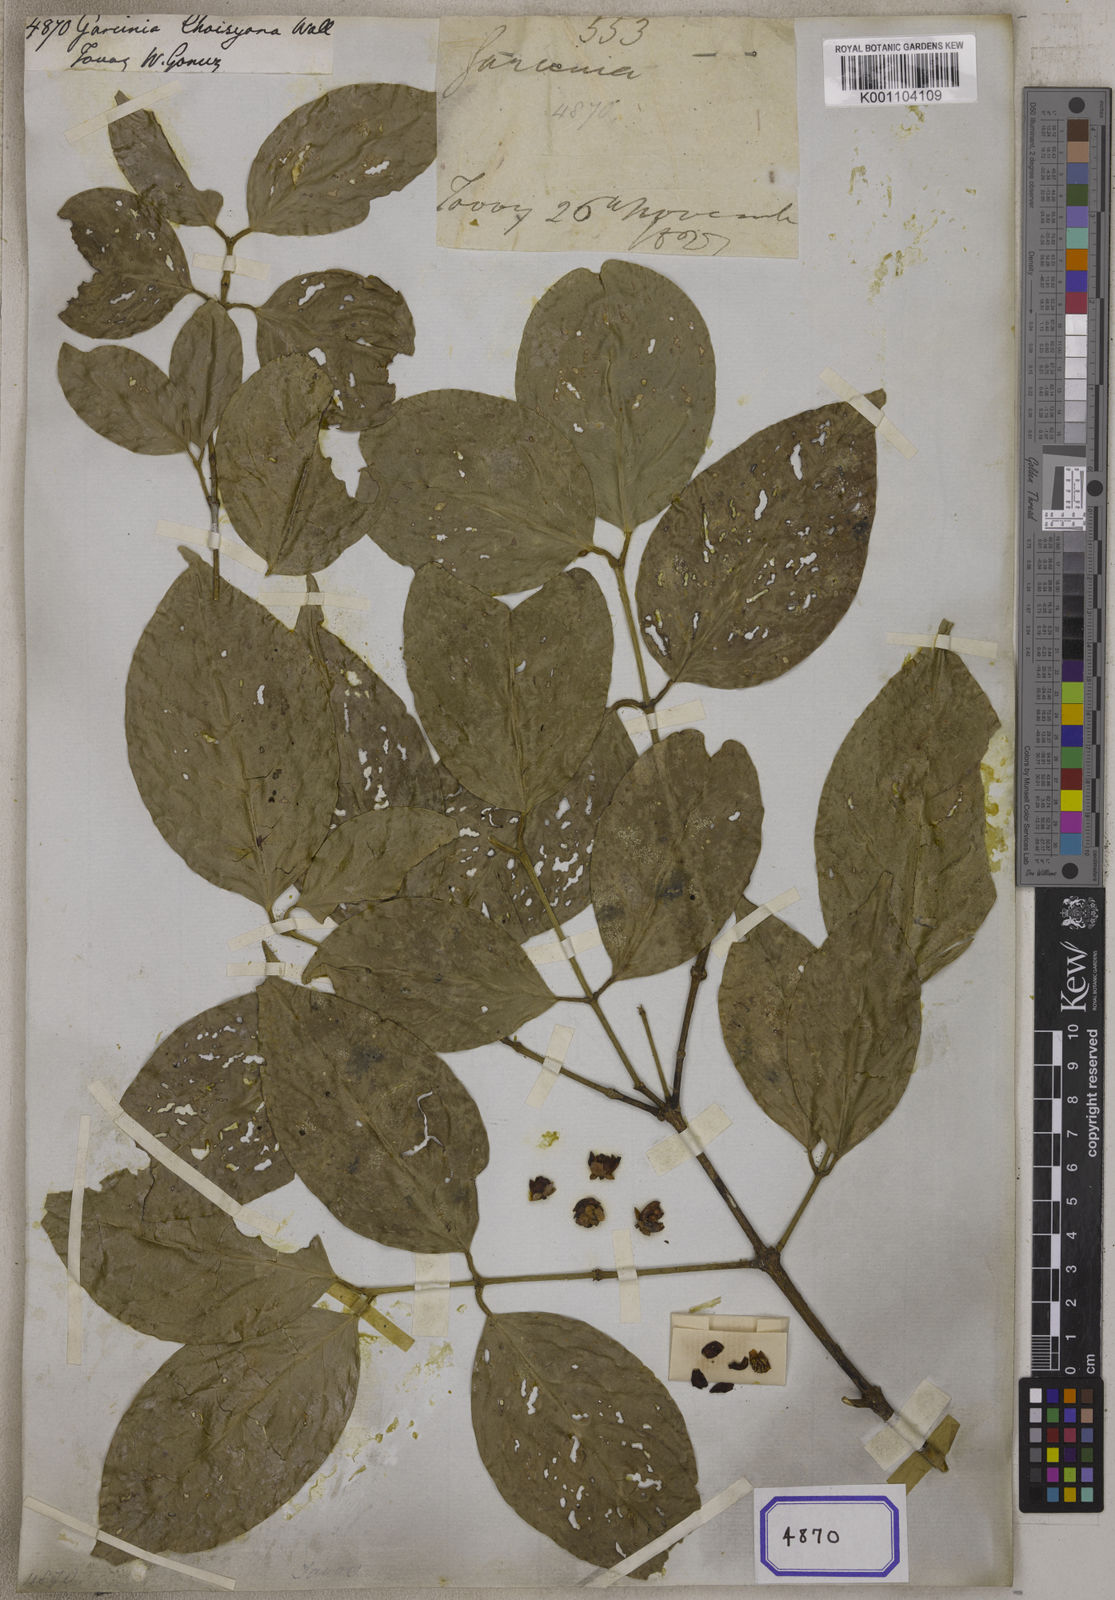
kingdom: Plantae
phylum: Tracheophyta
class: Magnoliopsida
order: Malpighiales
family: Clusiaceae
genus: Garcinia
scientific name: Garcinia
